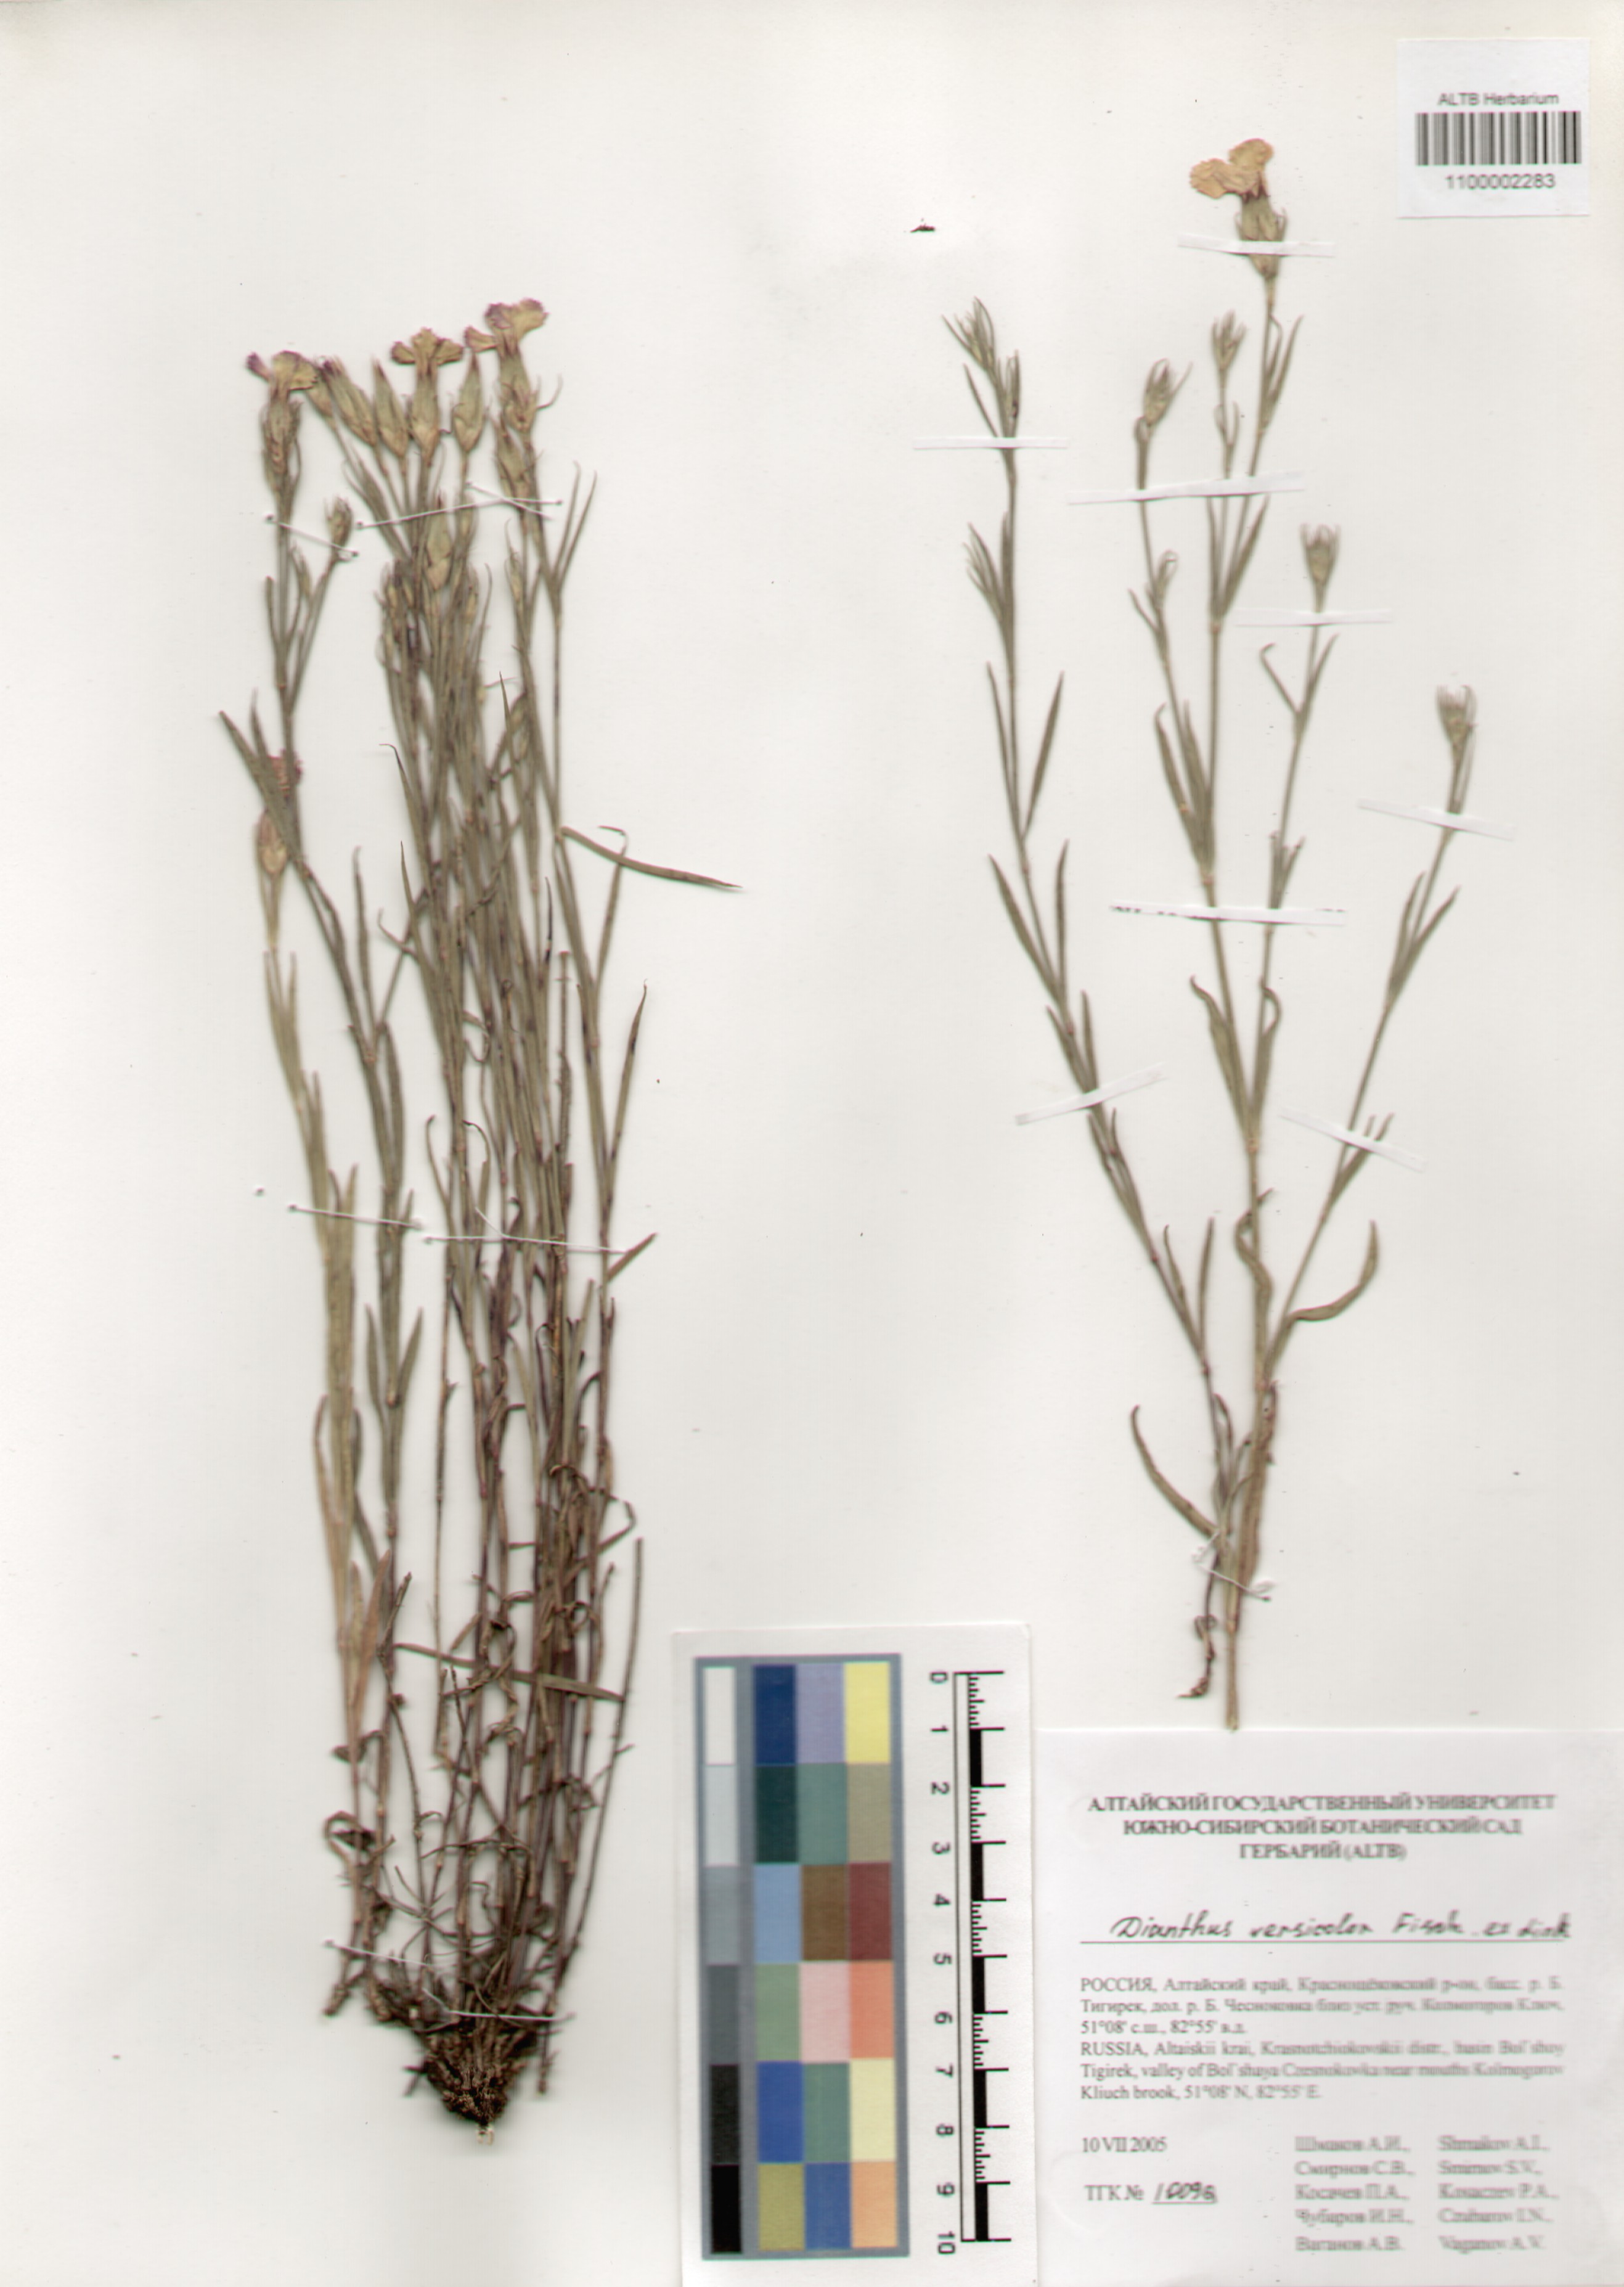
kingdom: Plantae
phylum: Tracheophyta
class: Magnoliopsida
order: Caryophyllales
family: Caryophyllaceae
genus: Dianthus
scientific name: Dianthus chinensis
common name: Rainbow pink
